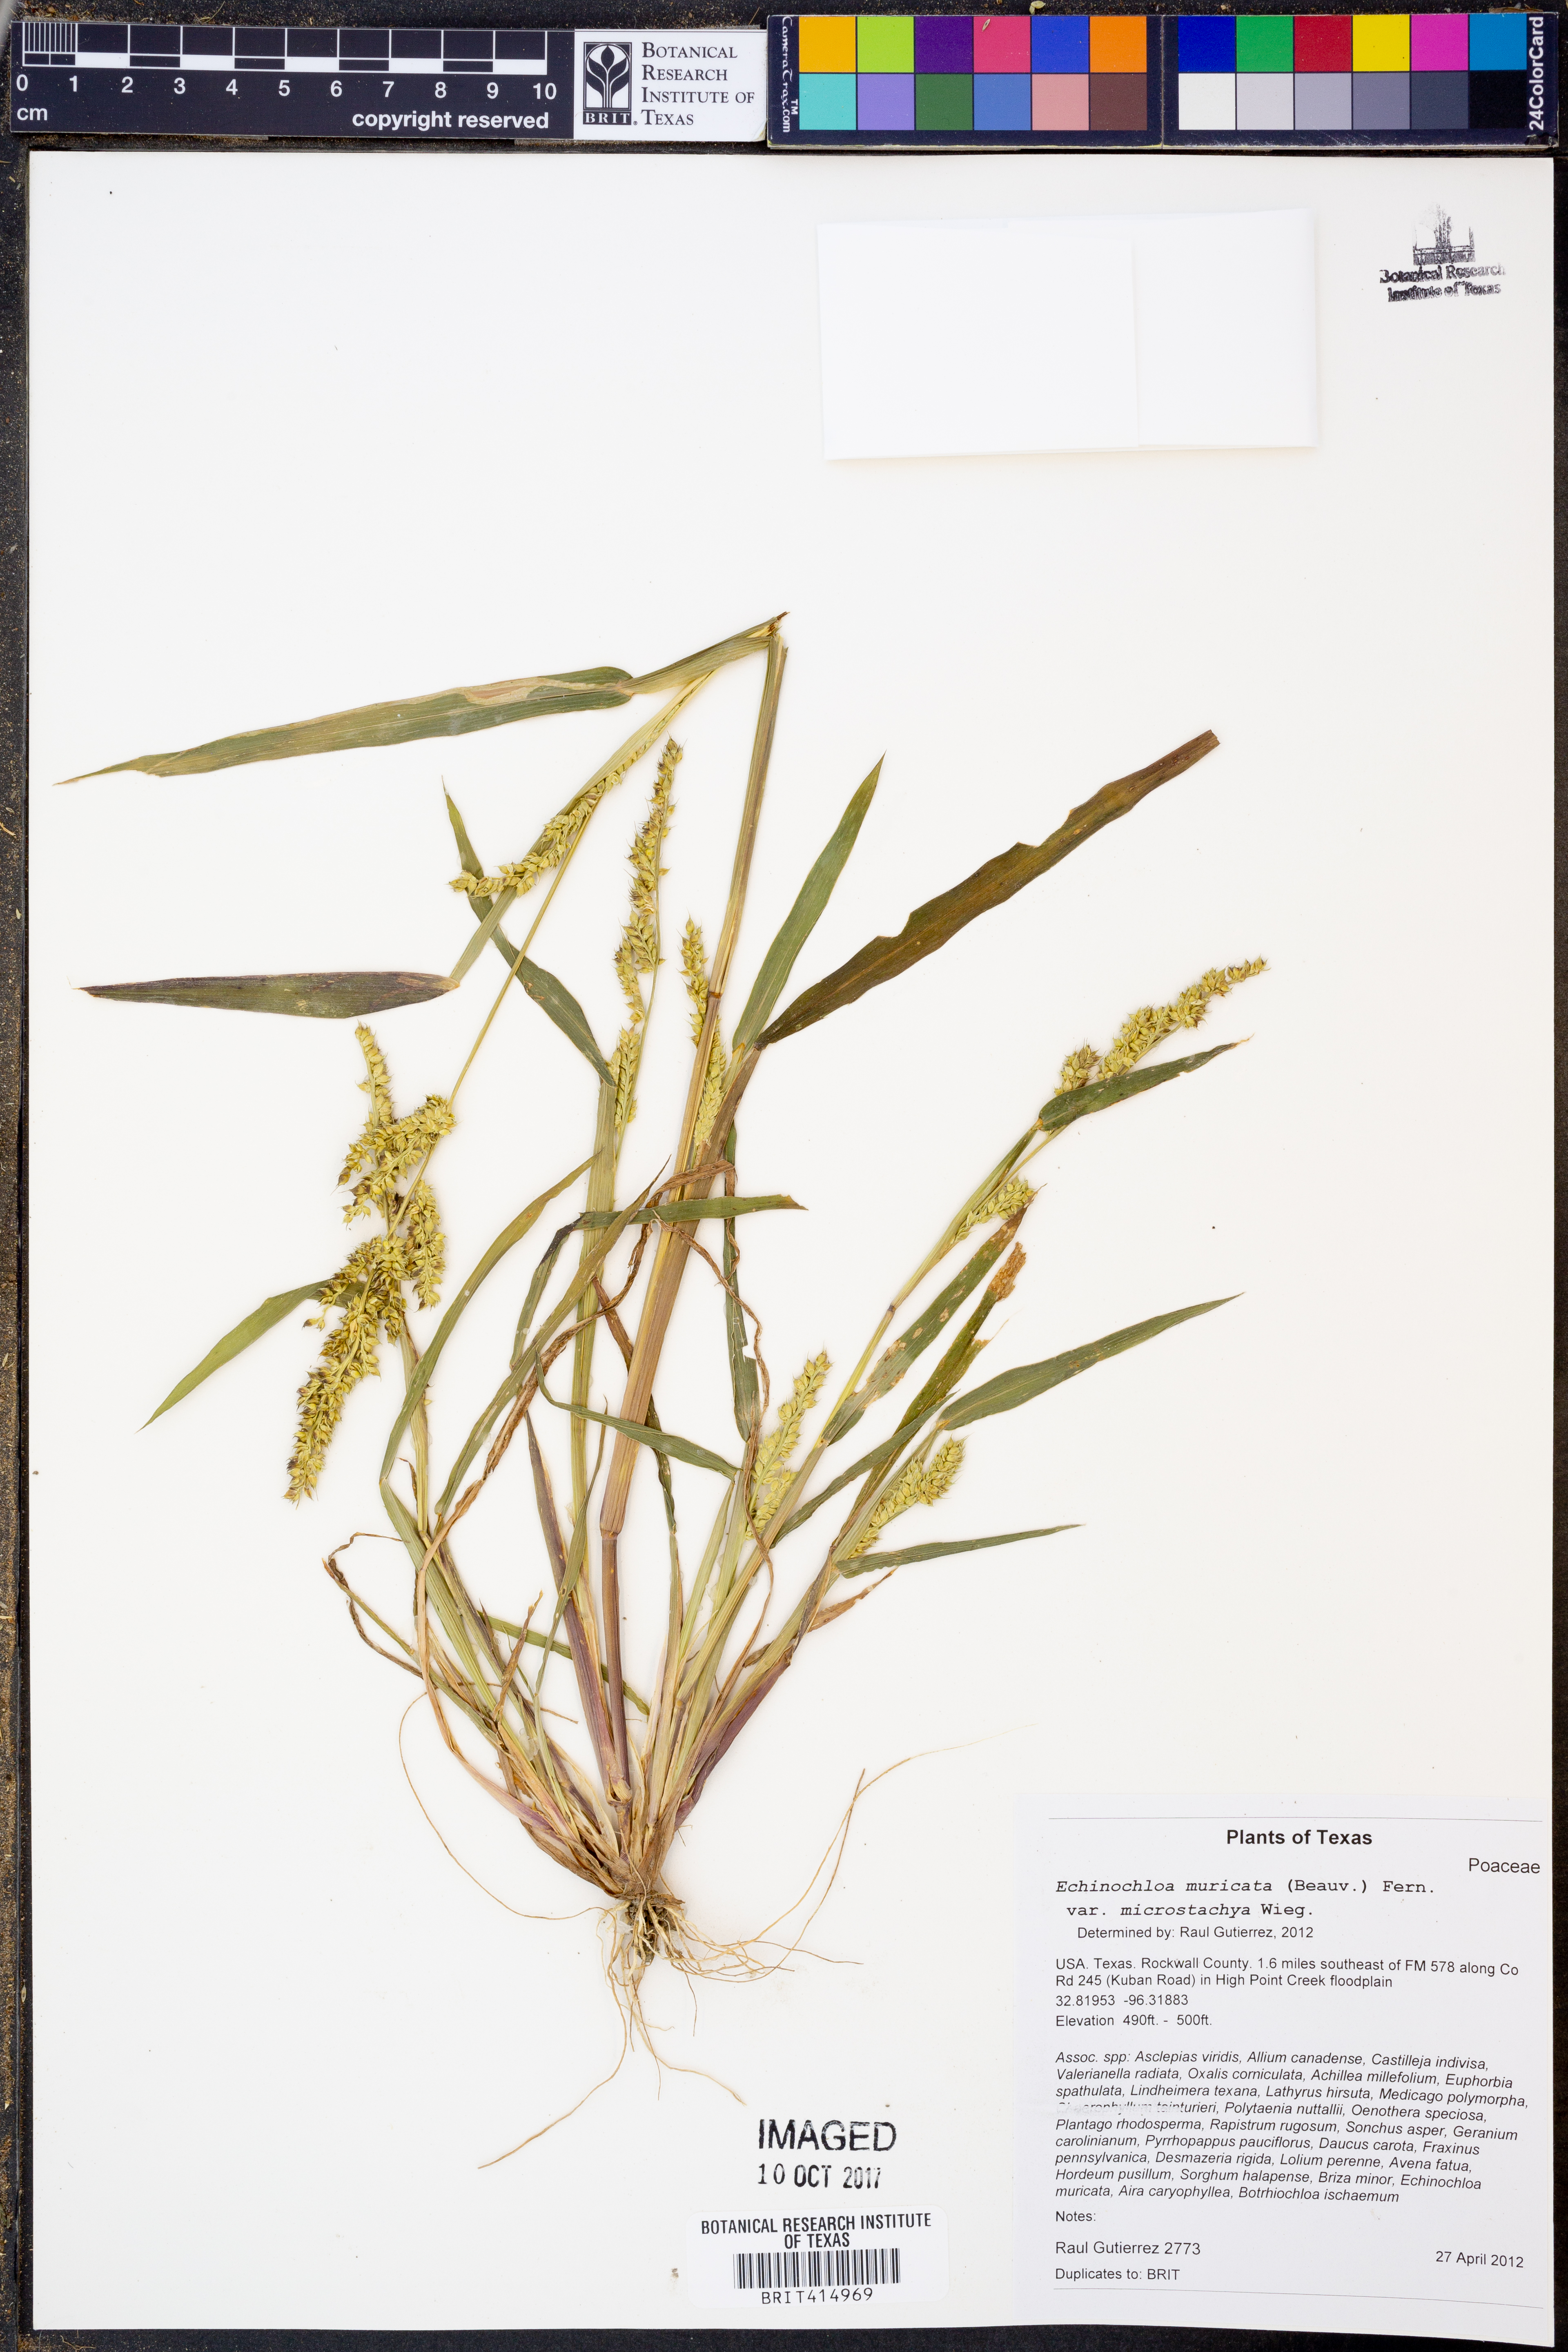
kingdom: Plantae
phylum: Tracheophyta
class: Liliopsida
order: Poales
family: Poaceae
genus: Echinochloa
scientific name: Echinochloa muricata
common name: American barnyard grass
